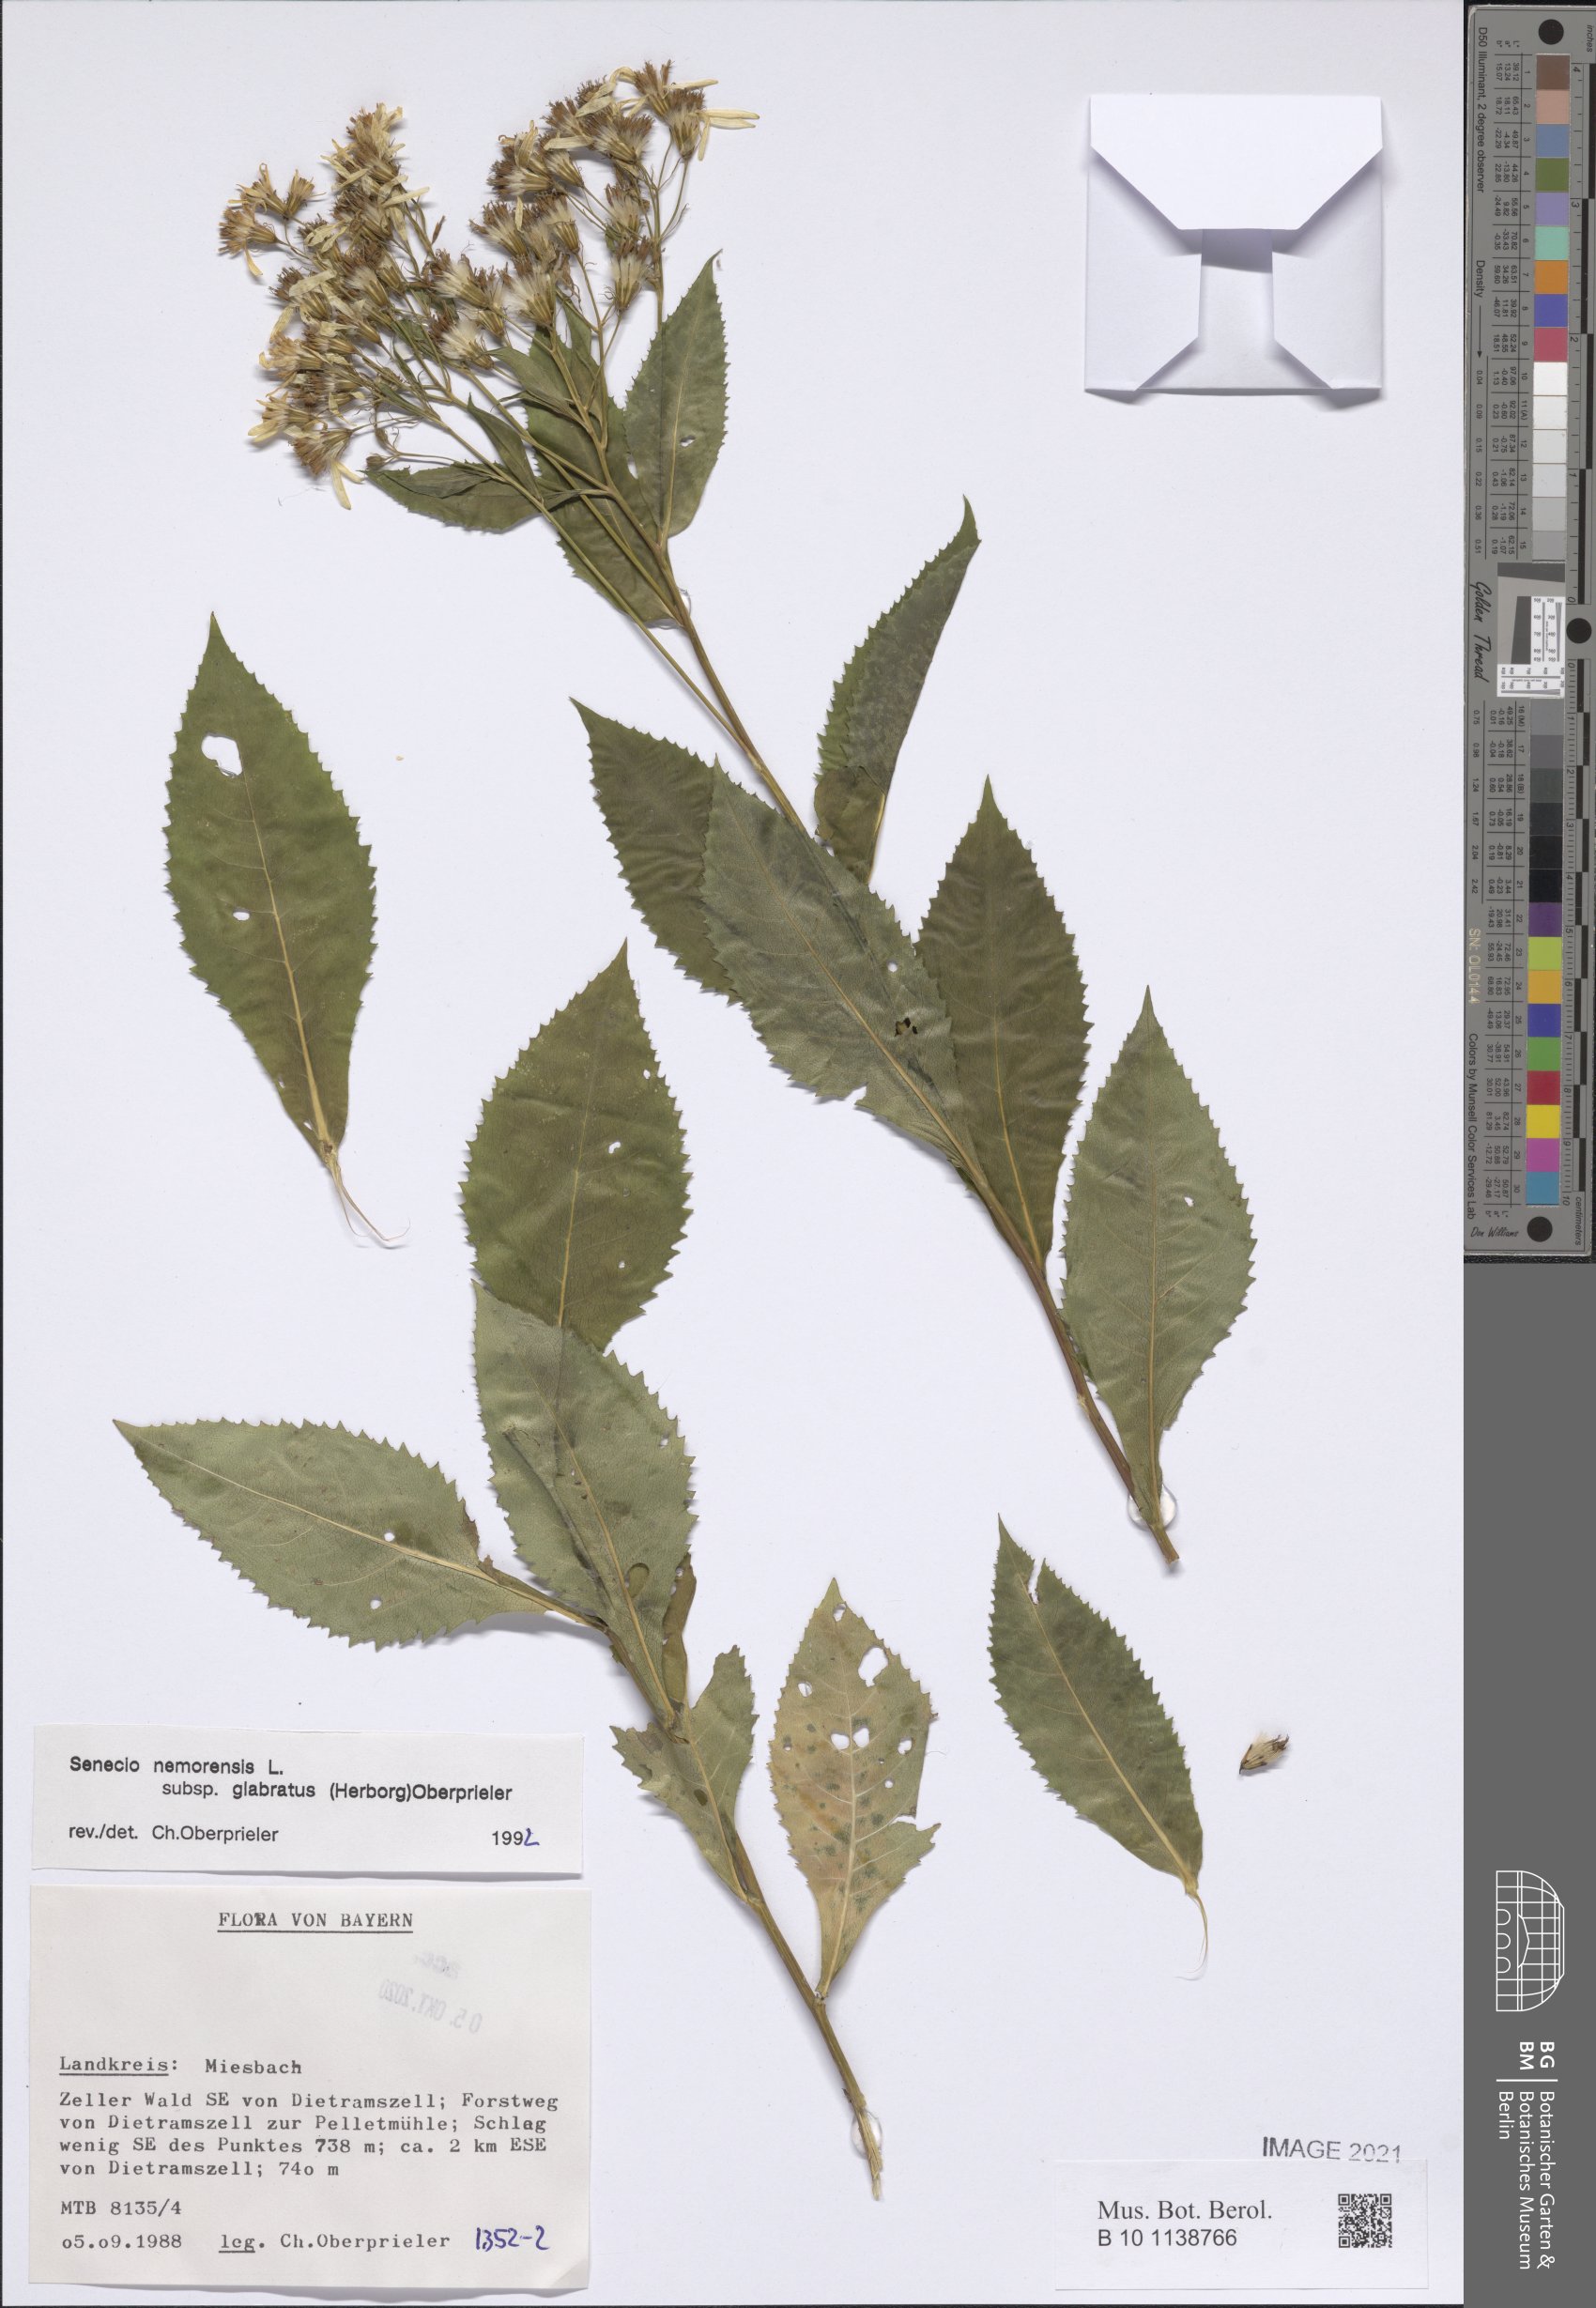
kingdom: Plantae
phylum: Tracheophyta
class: Magnoliopsida
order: Asterales
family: Asteraceae
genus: Senecio
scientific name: Senecio germanicus
